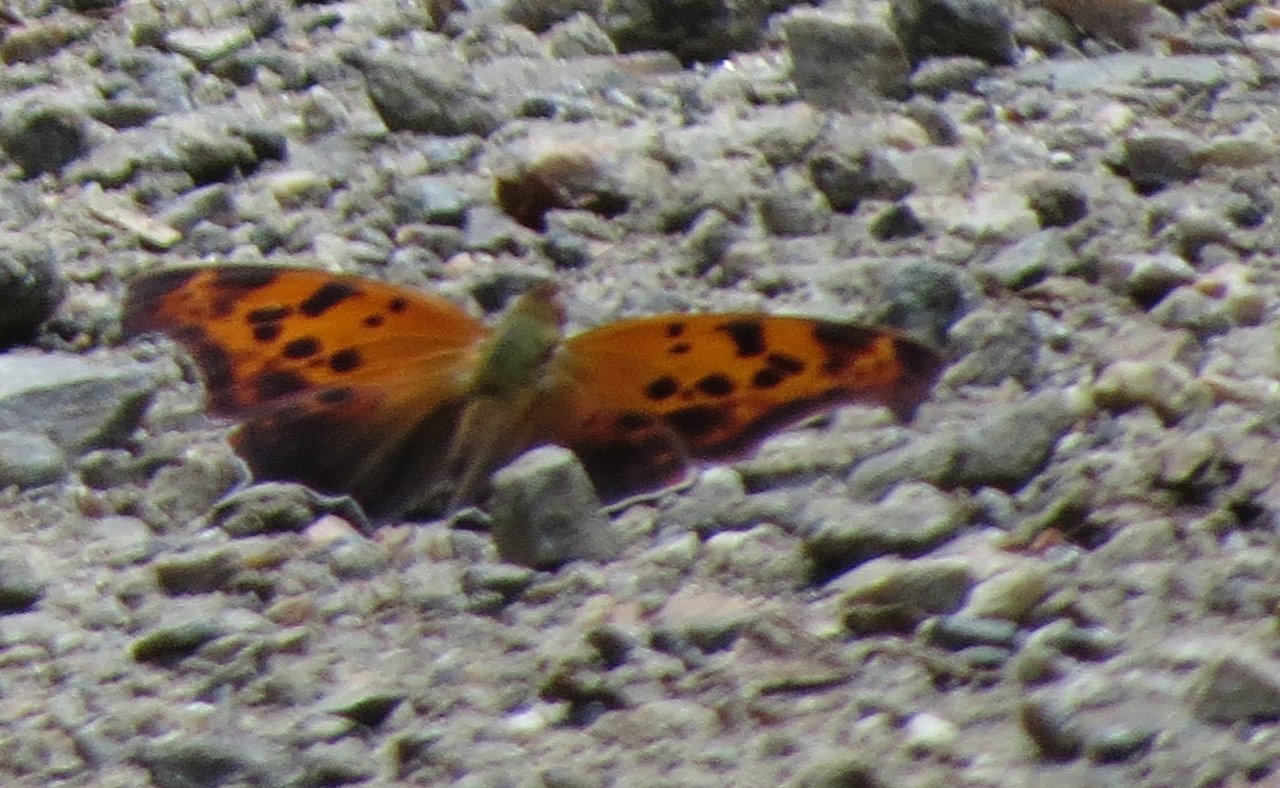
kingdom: Animalia
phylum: Arthropoda
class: Insecta
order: Lepidoptera
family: Nymphalidae
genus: Polygonia
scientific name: Polygonia interrogationis
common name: Question Mark
